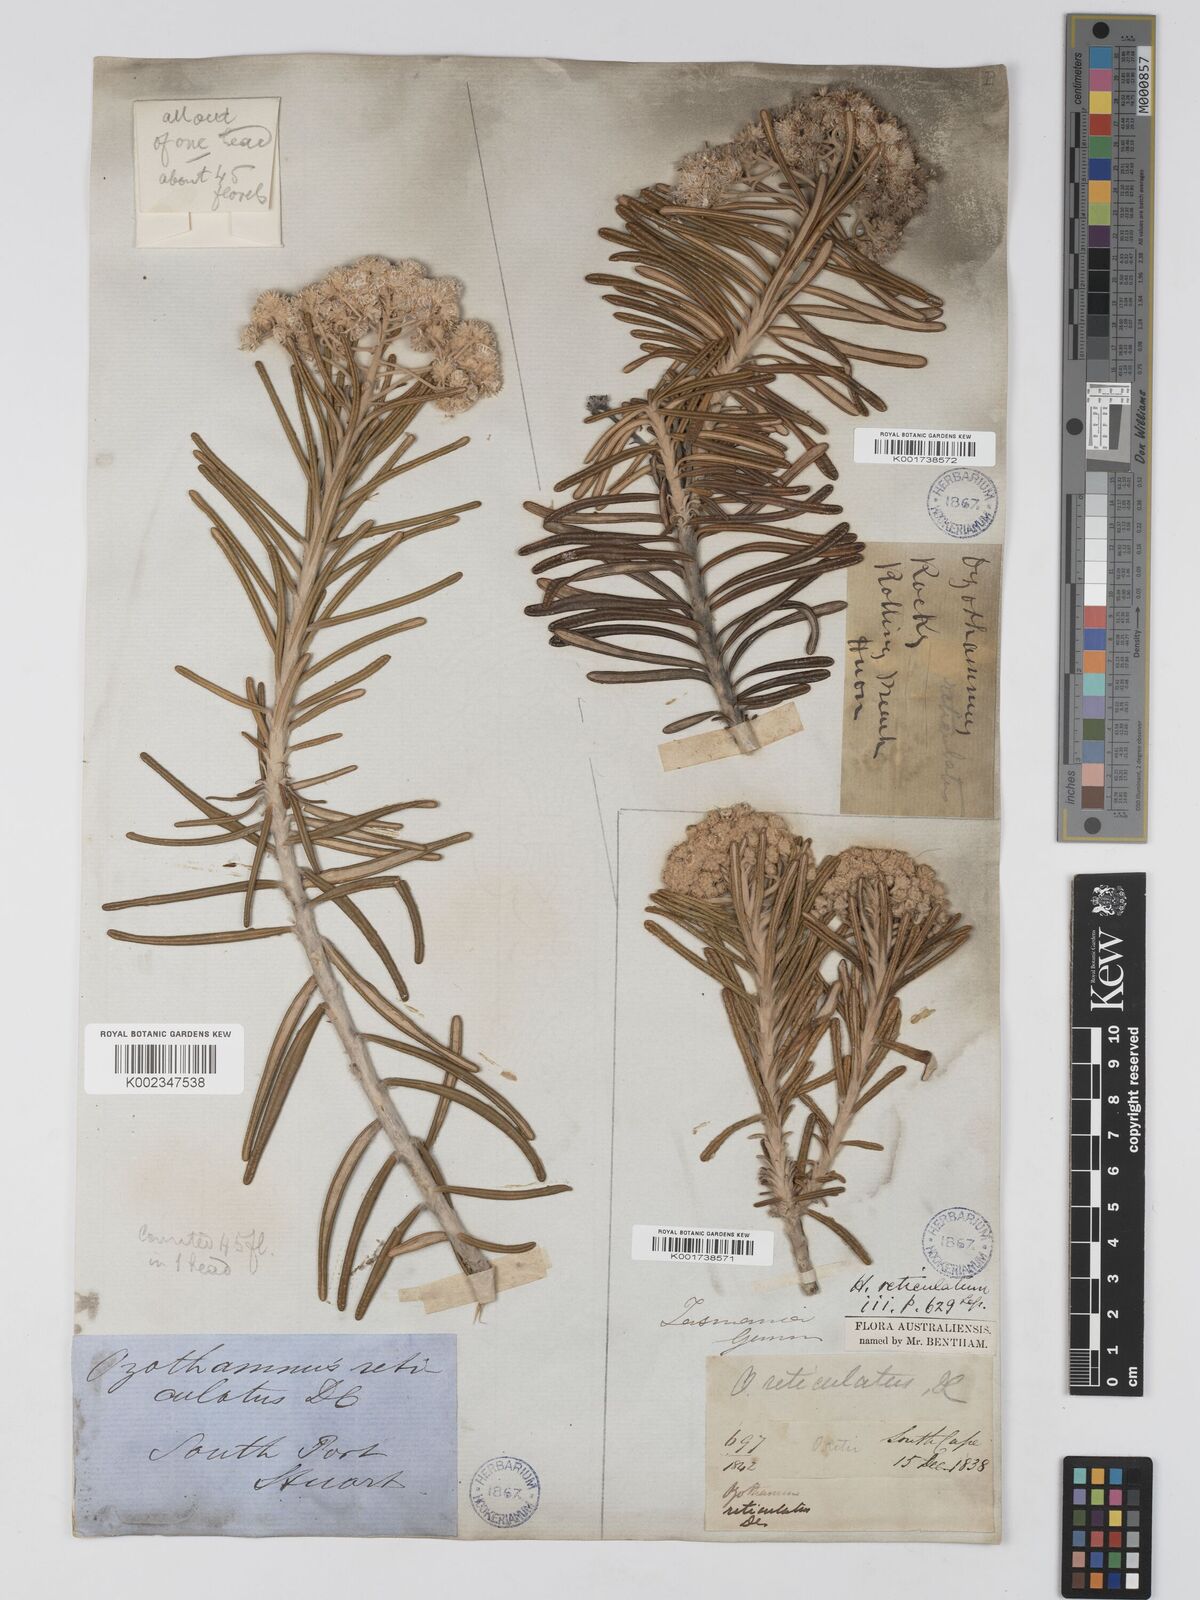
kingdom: Plantae
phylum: Tracheophyta
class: Magnoliopsida
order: Asterales
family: Asteraceae
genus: Ozothamnus
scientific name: Ozothamnus reticulatus
